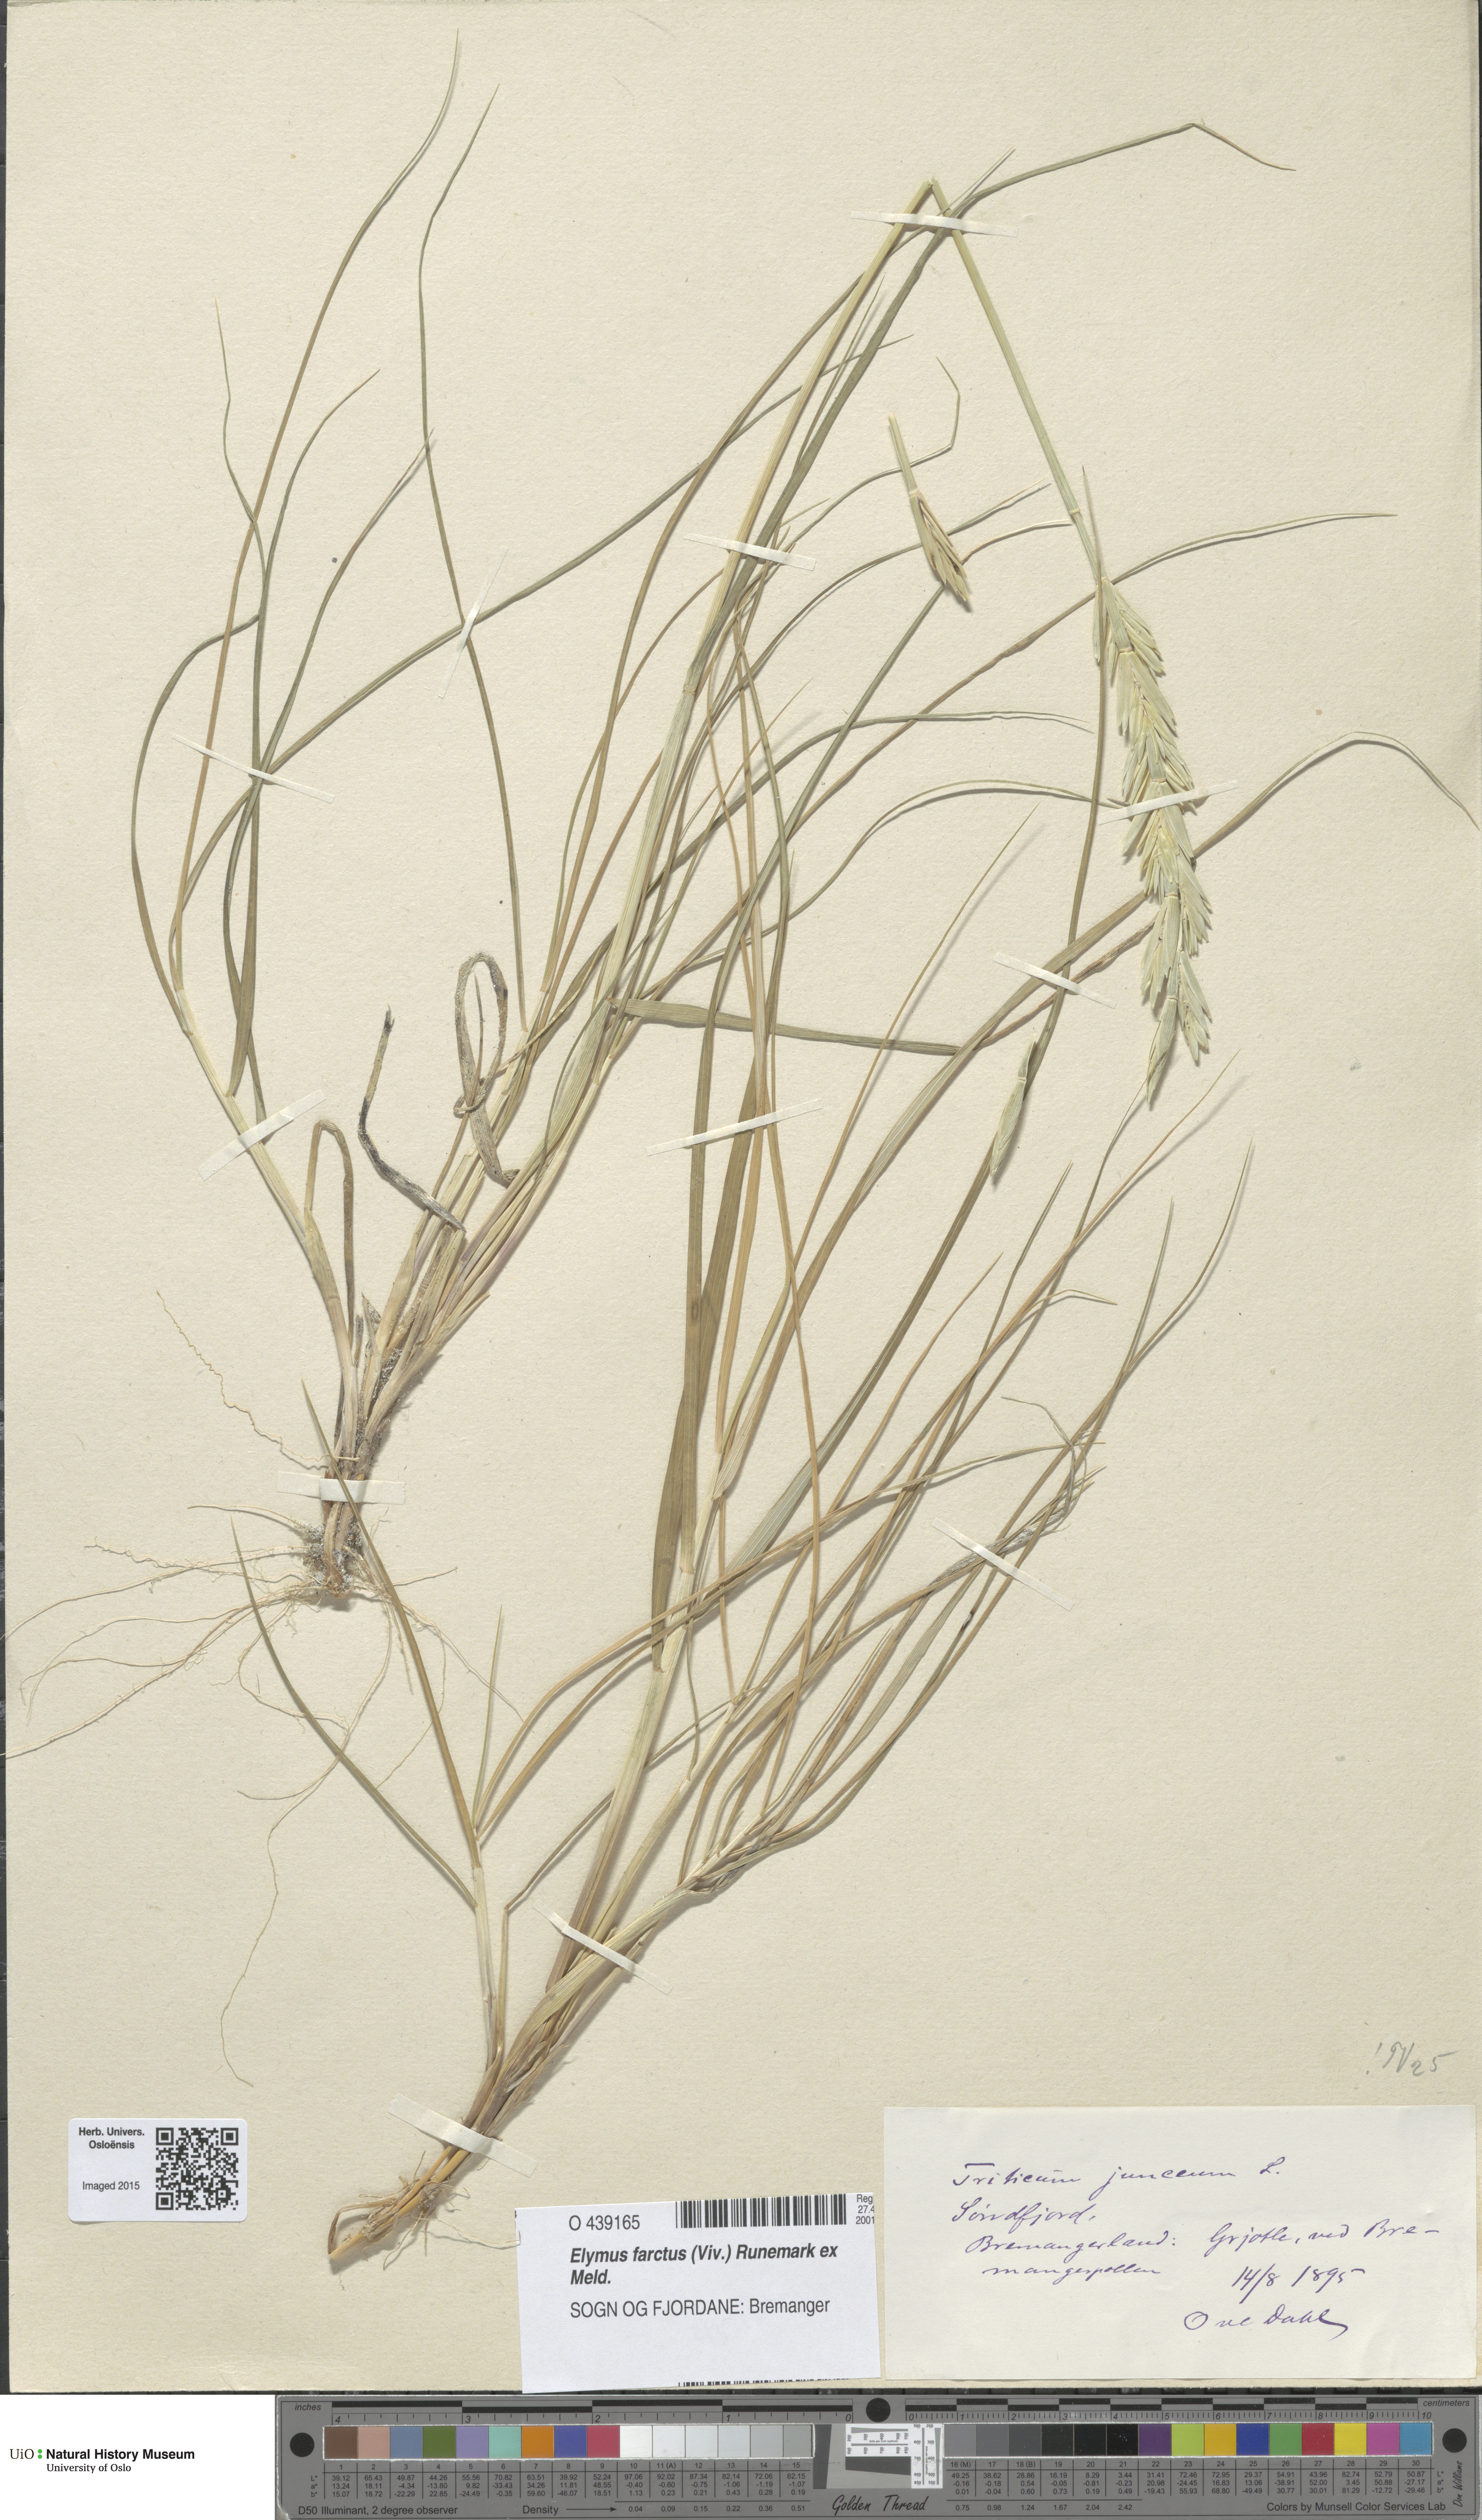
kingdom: Plantae
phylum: Tracheophyta
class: Liliopsida
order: Poales
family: Poaceae
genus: Thinopyrum
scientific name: Thinopyrum junceum
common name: Russian wheatgrass
